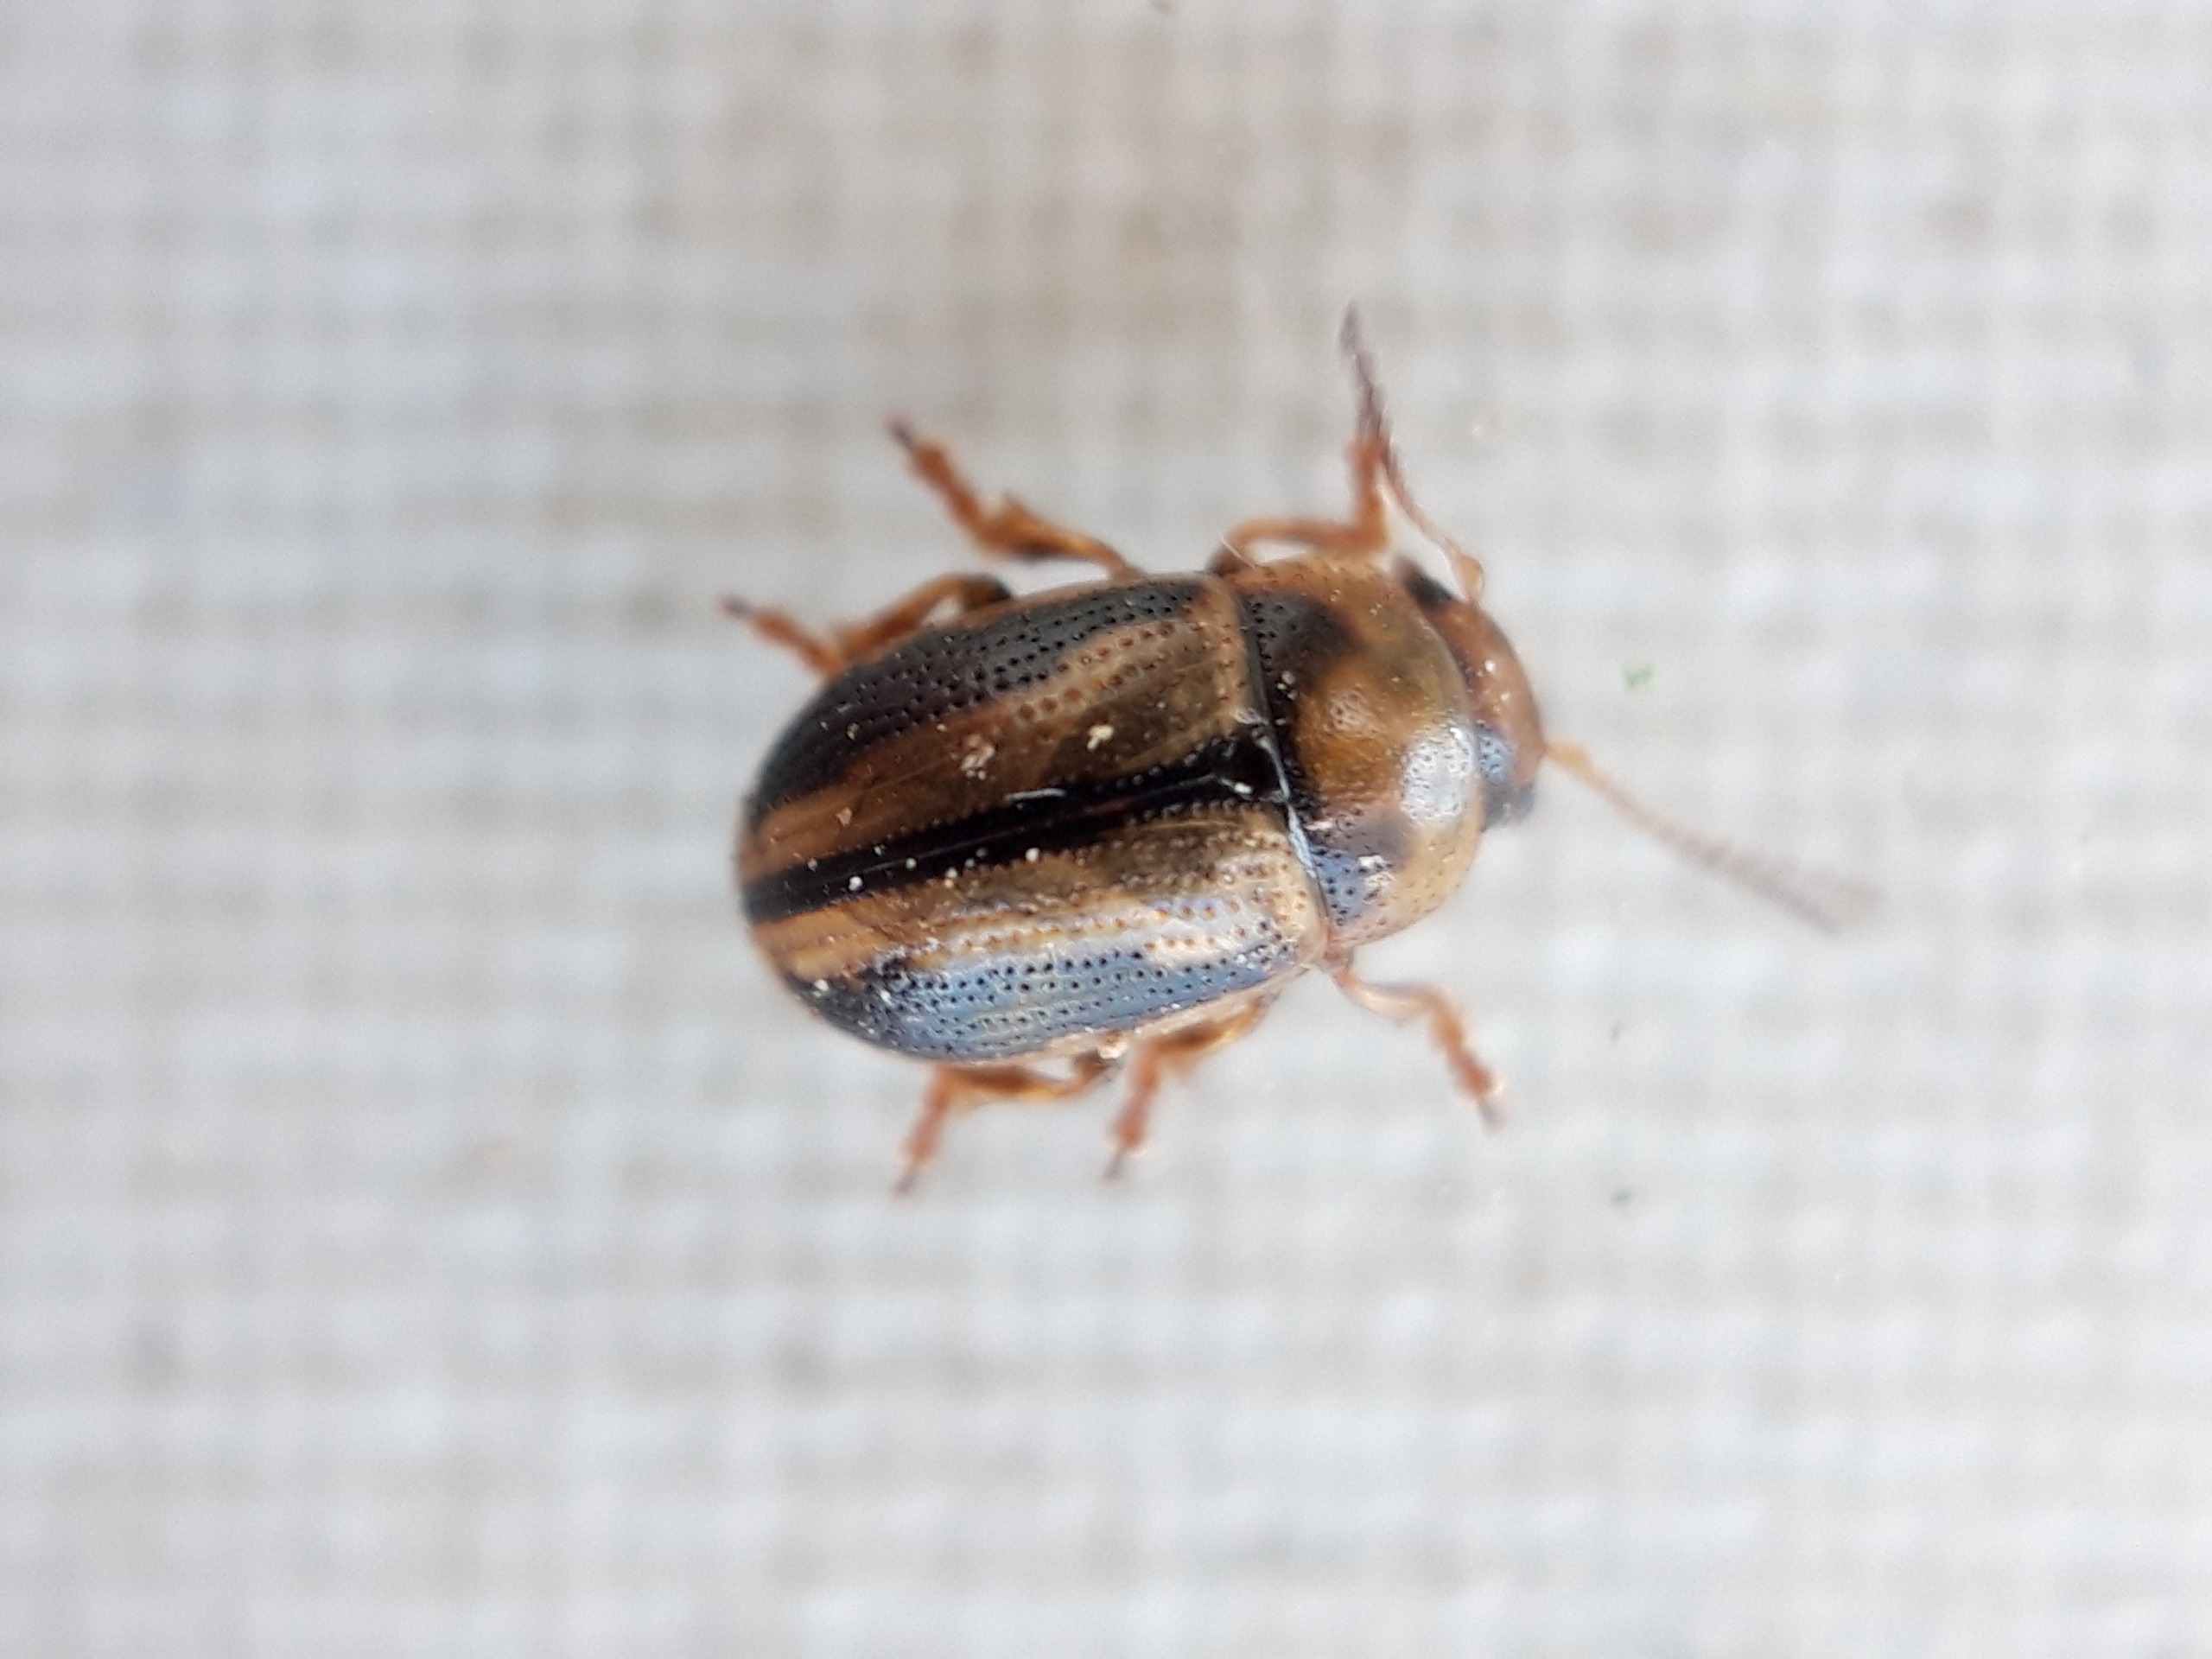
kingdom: Animalia
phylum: Arthropoda
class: Insecta
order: Coleoptera
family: Chrysomelidae
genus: Gonioctena
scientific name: Gonioctena olivacea
